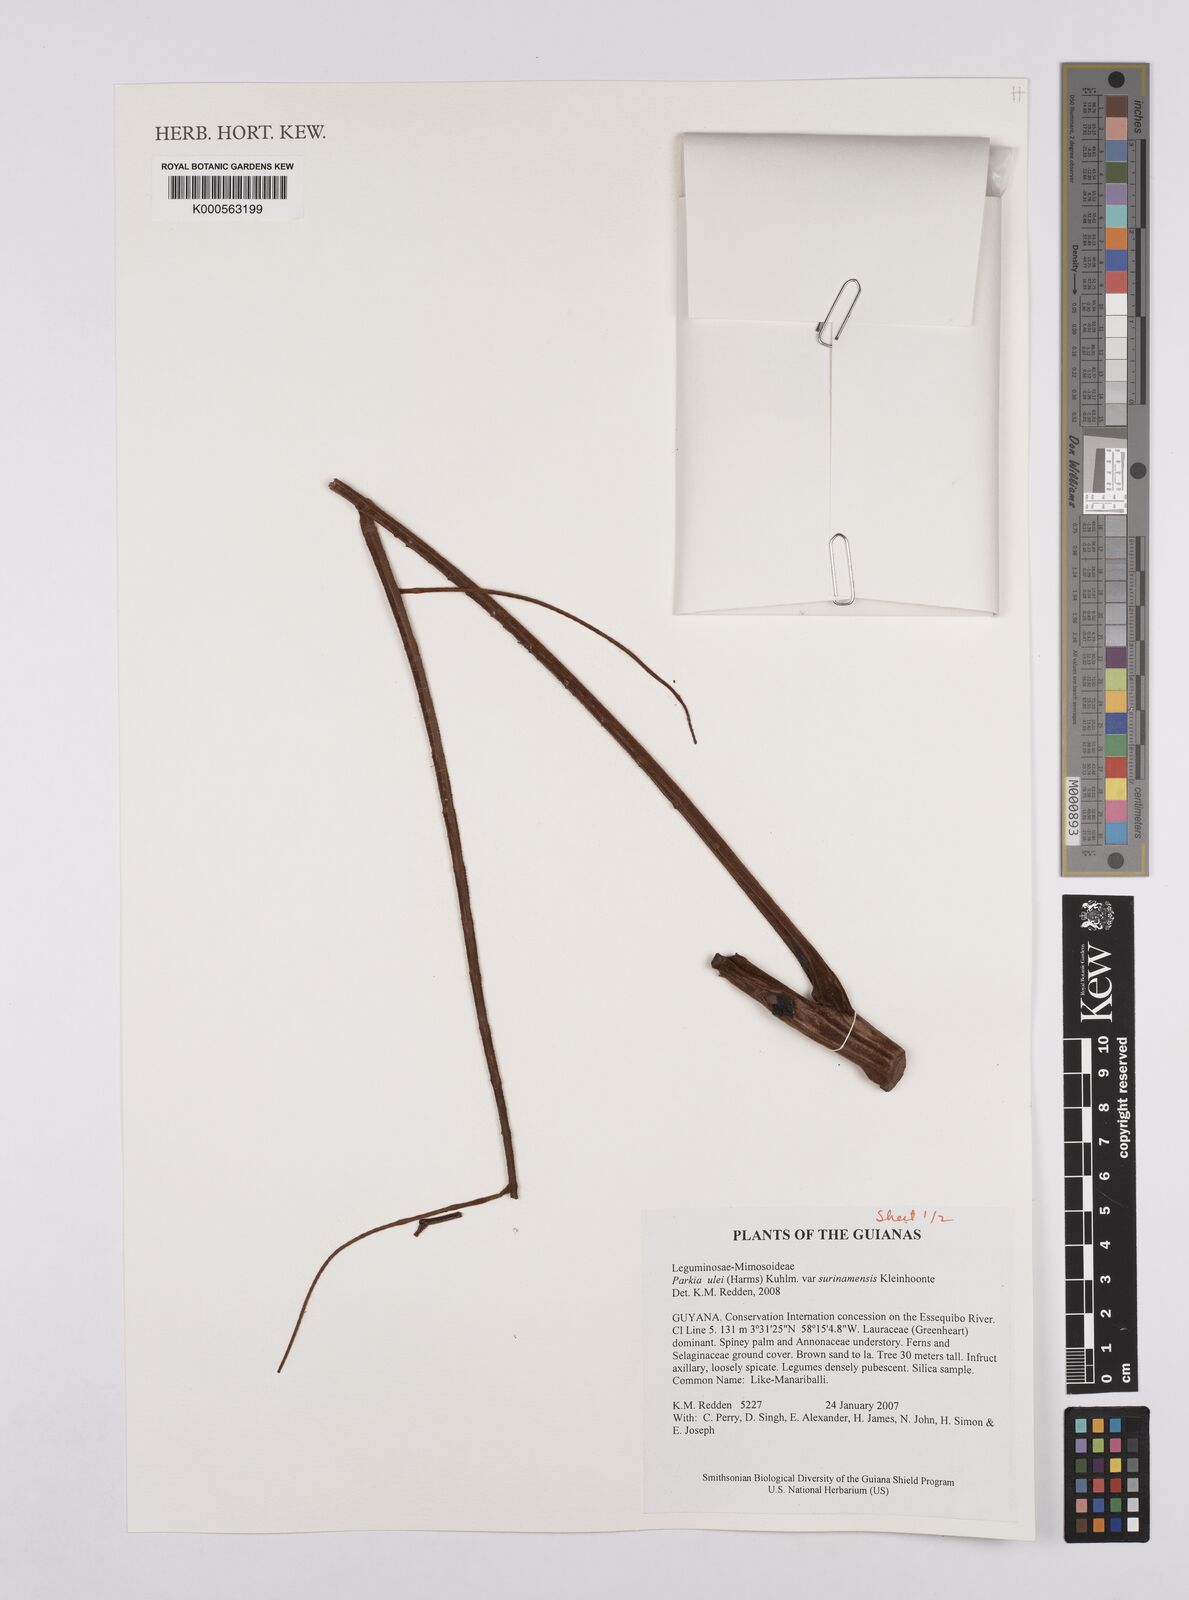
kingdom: Plantae
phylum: Tracheophyta
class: Magnoliopsida
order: Fabales
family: Fabaceae
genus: Parkia
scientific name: Parkia ulei
